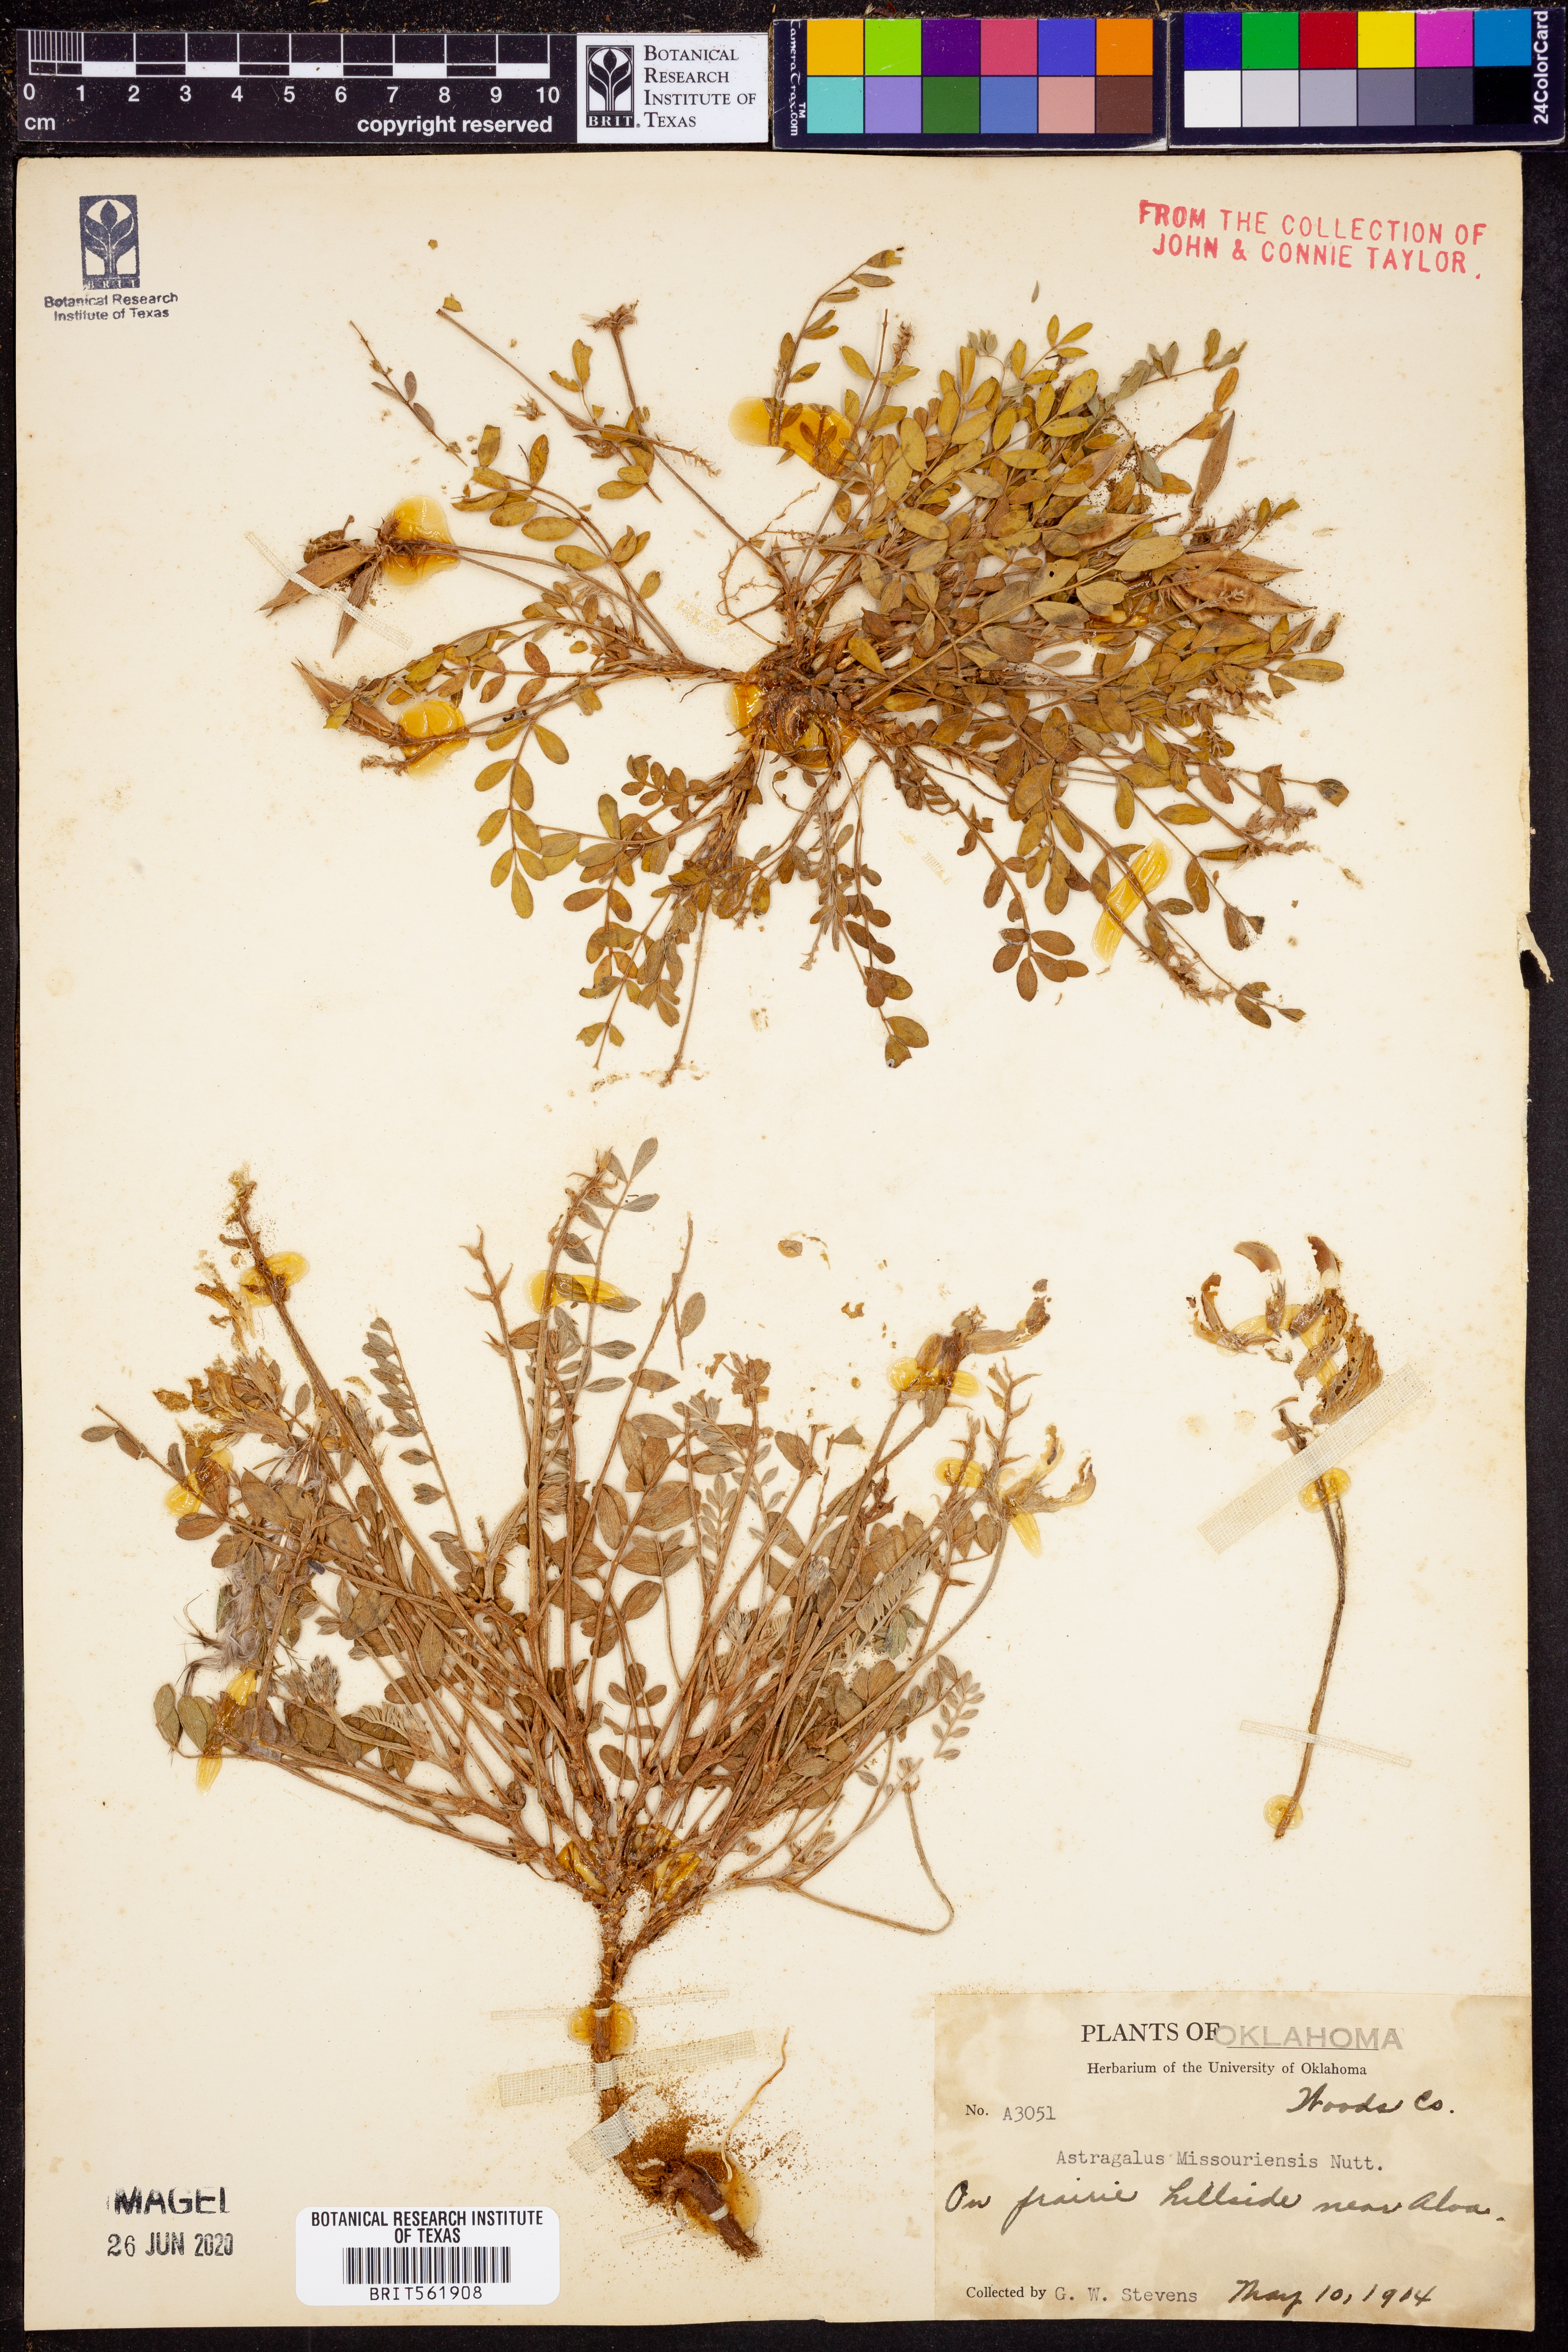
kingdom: Plantae
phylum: Tracheophyta
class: Magnoliopsida
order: Fabales
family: Fabaceae
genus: Astragalus
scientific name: Astragalus missouriensis
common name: Missouri milk-vetch
